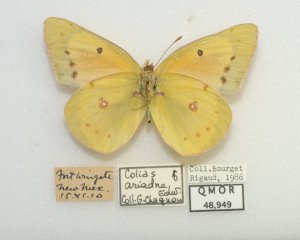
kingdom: Animalia
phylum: Arthropoda
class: Insecta
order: Lepidoptera
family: Pieridae
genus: Colias
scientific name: Colias eurytheme
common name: Orange Sulphur
